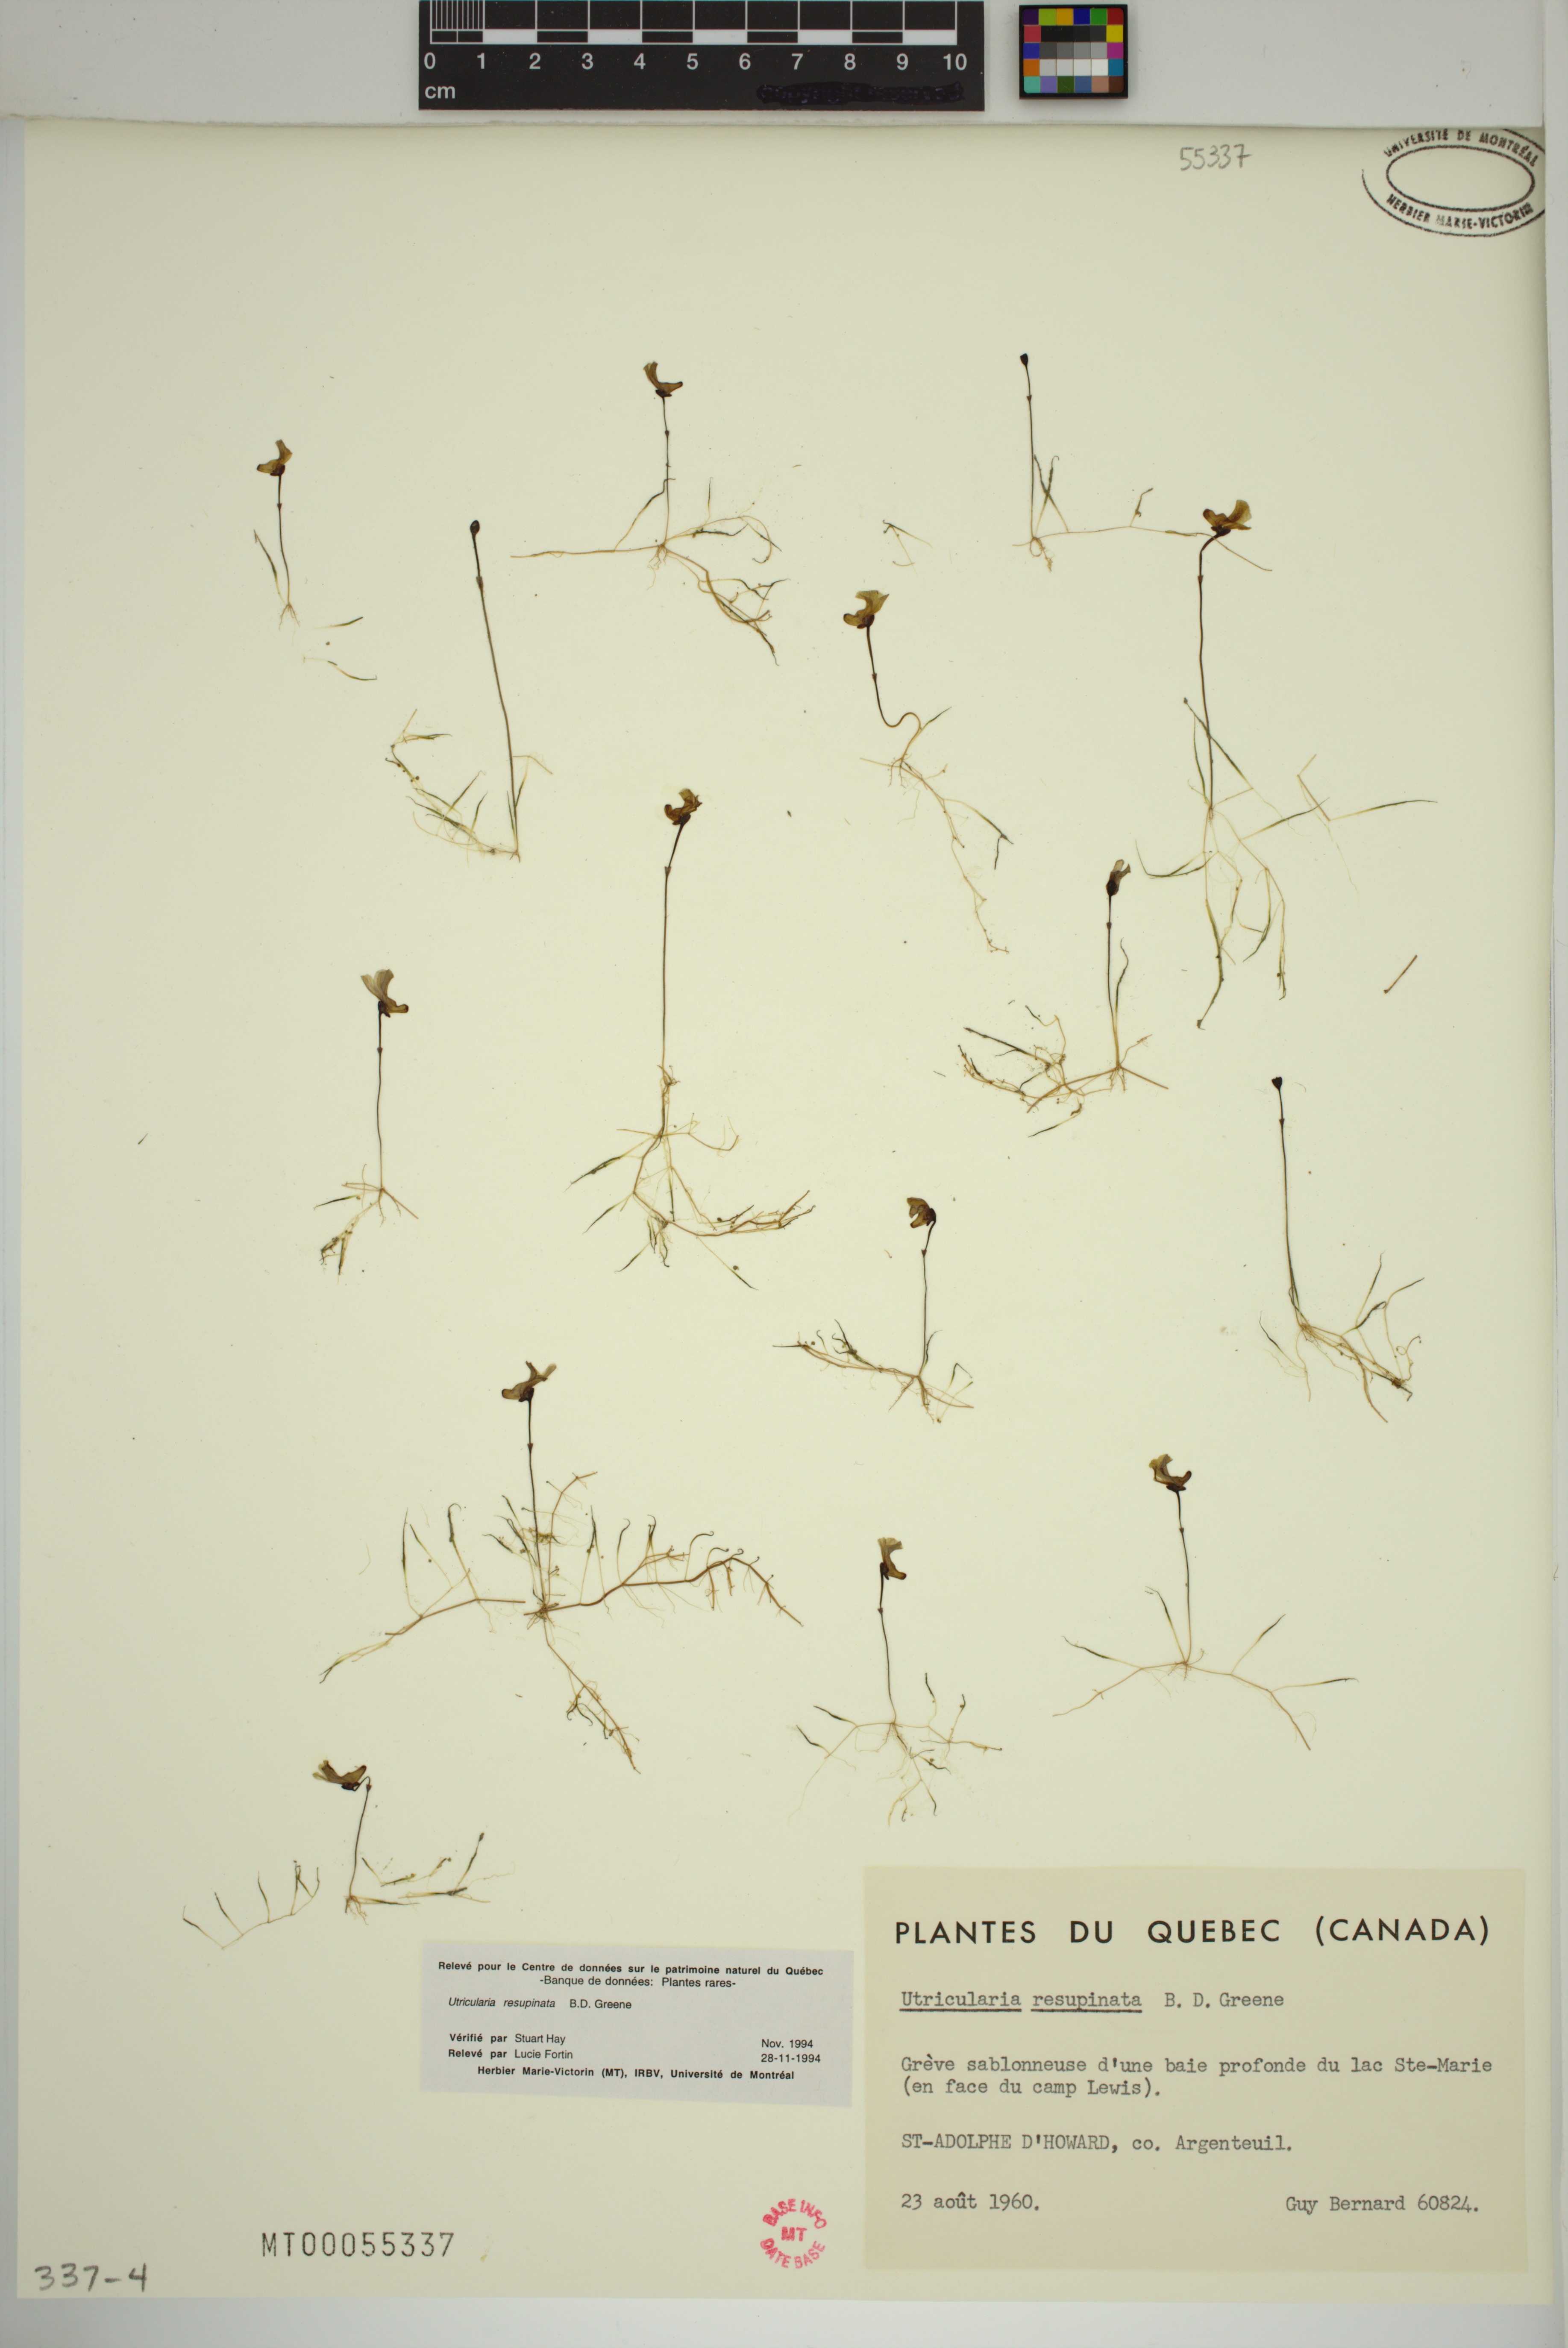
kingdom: Plantae
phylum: Tracheophyta
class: Magnoliopsida
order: Lamiales
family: Lentibulariaceae
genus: Utricularia
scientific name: Utricularia resupinata
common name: Northeastern bladderwort
